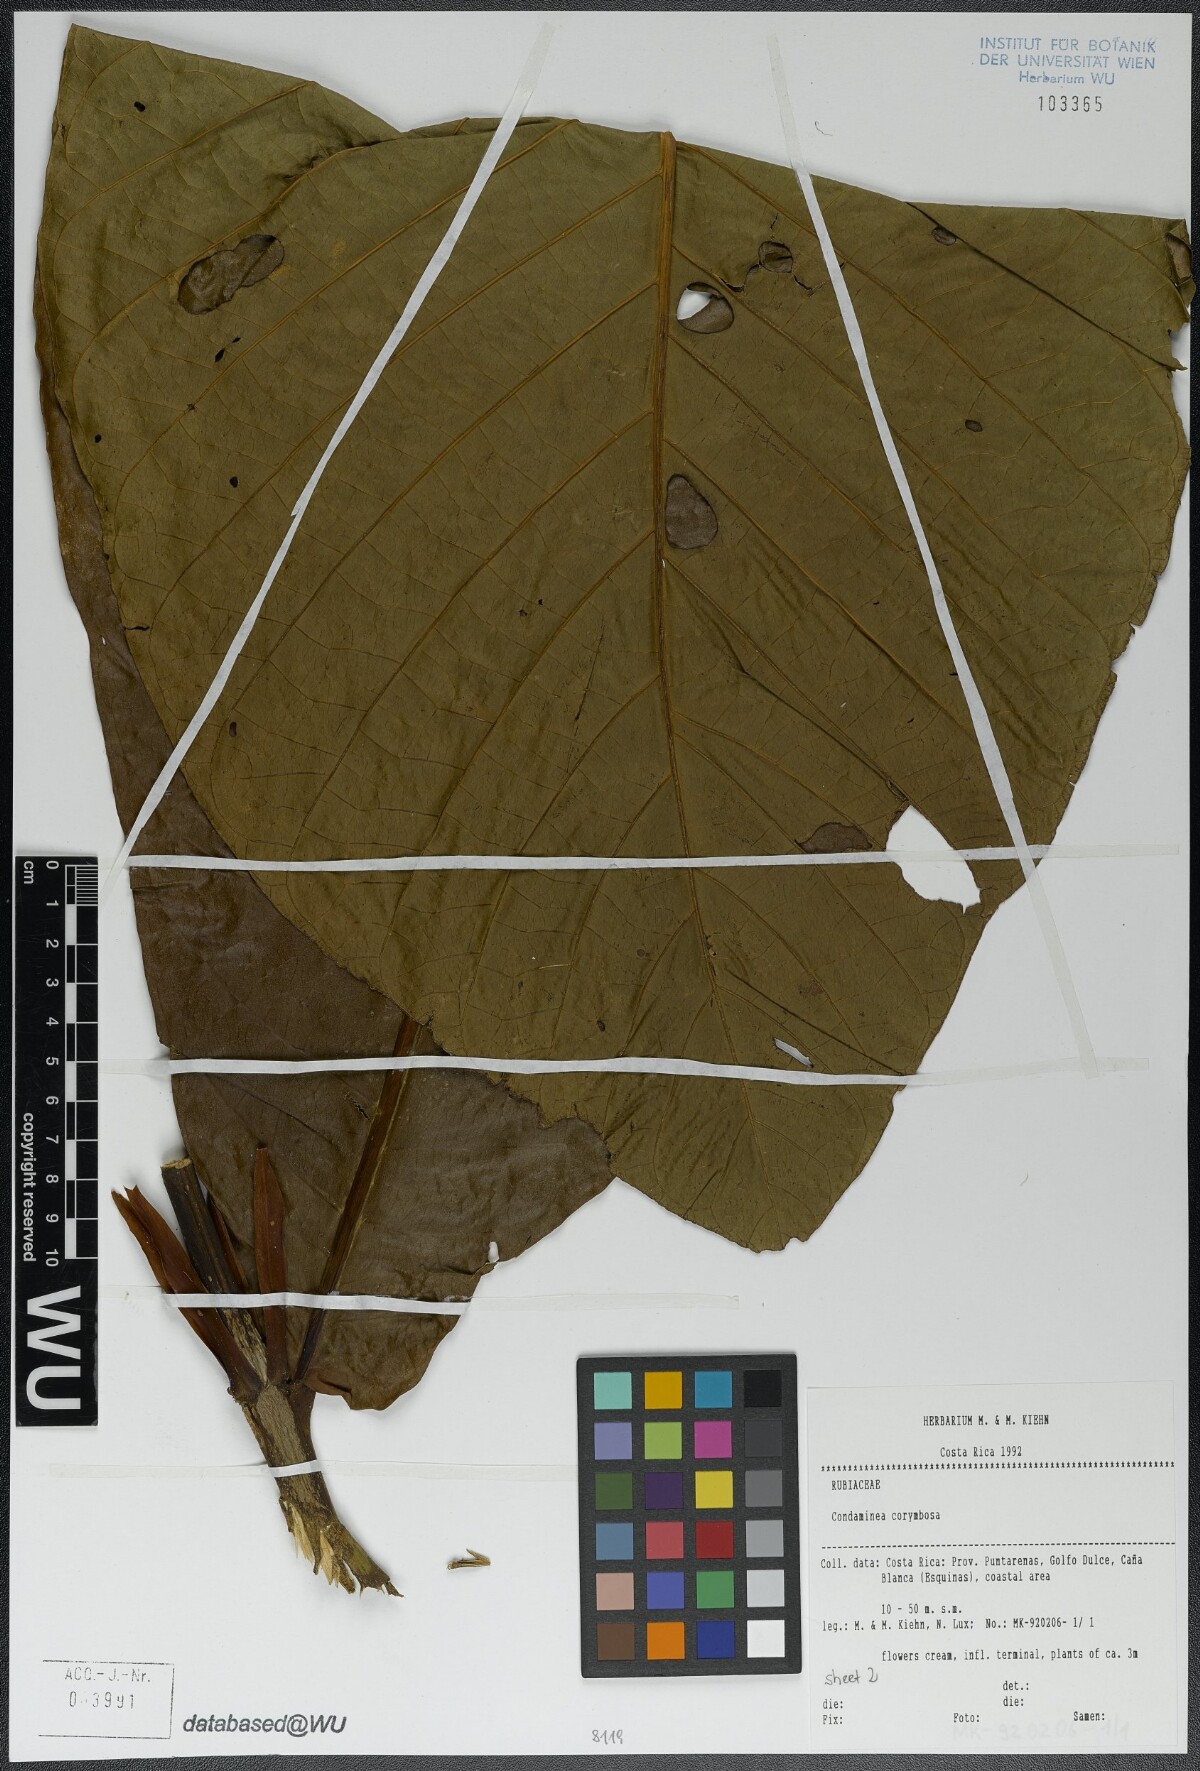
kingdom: Plantae
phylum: Tracheophyta
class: Magnoliopsida
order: Gentianales
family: Rubiaceae
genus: Condaminea
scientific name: Condaminea corymbosa
